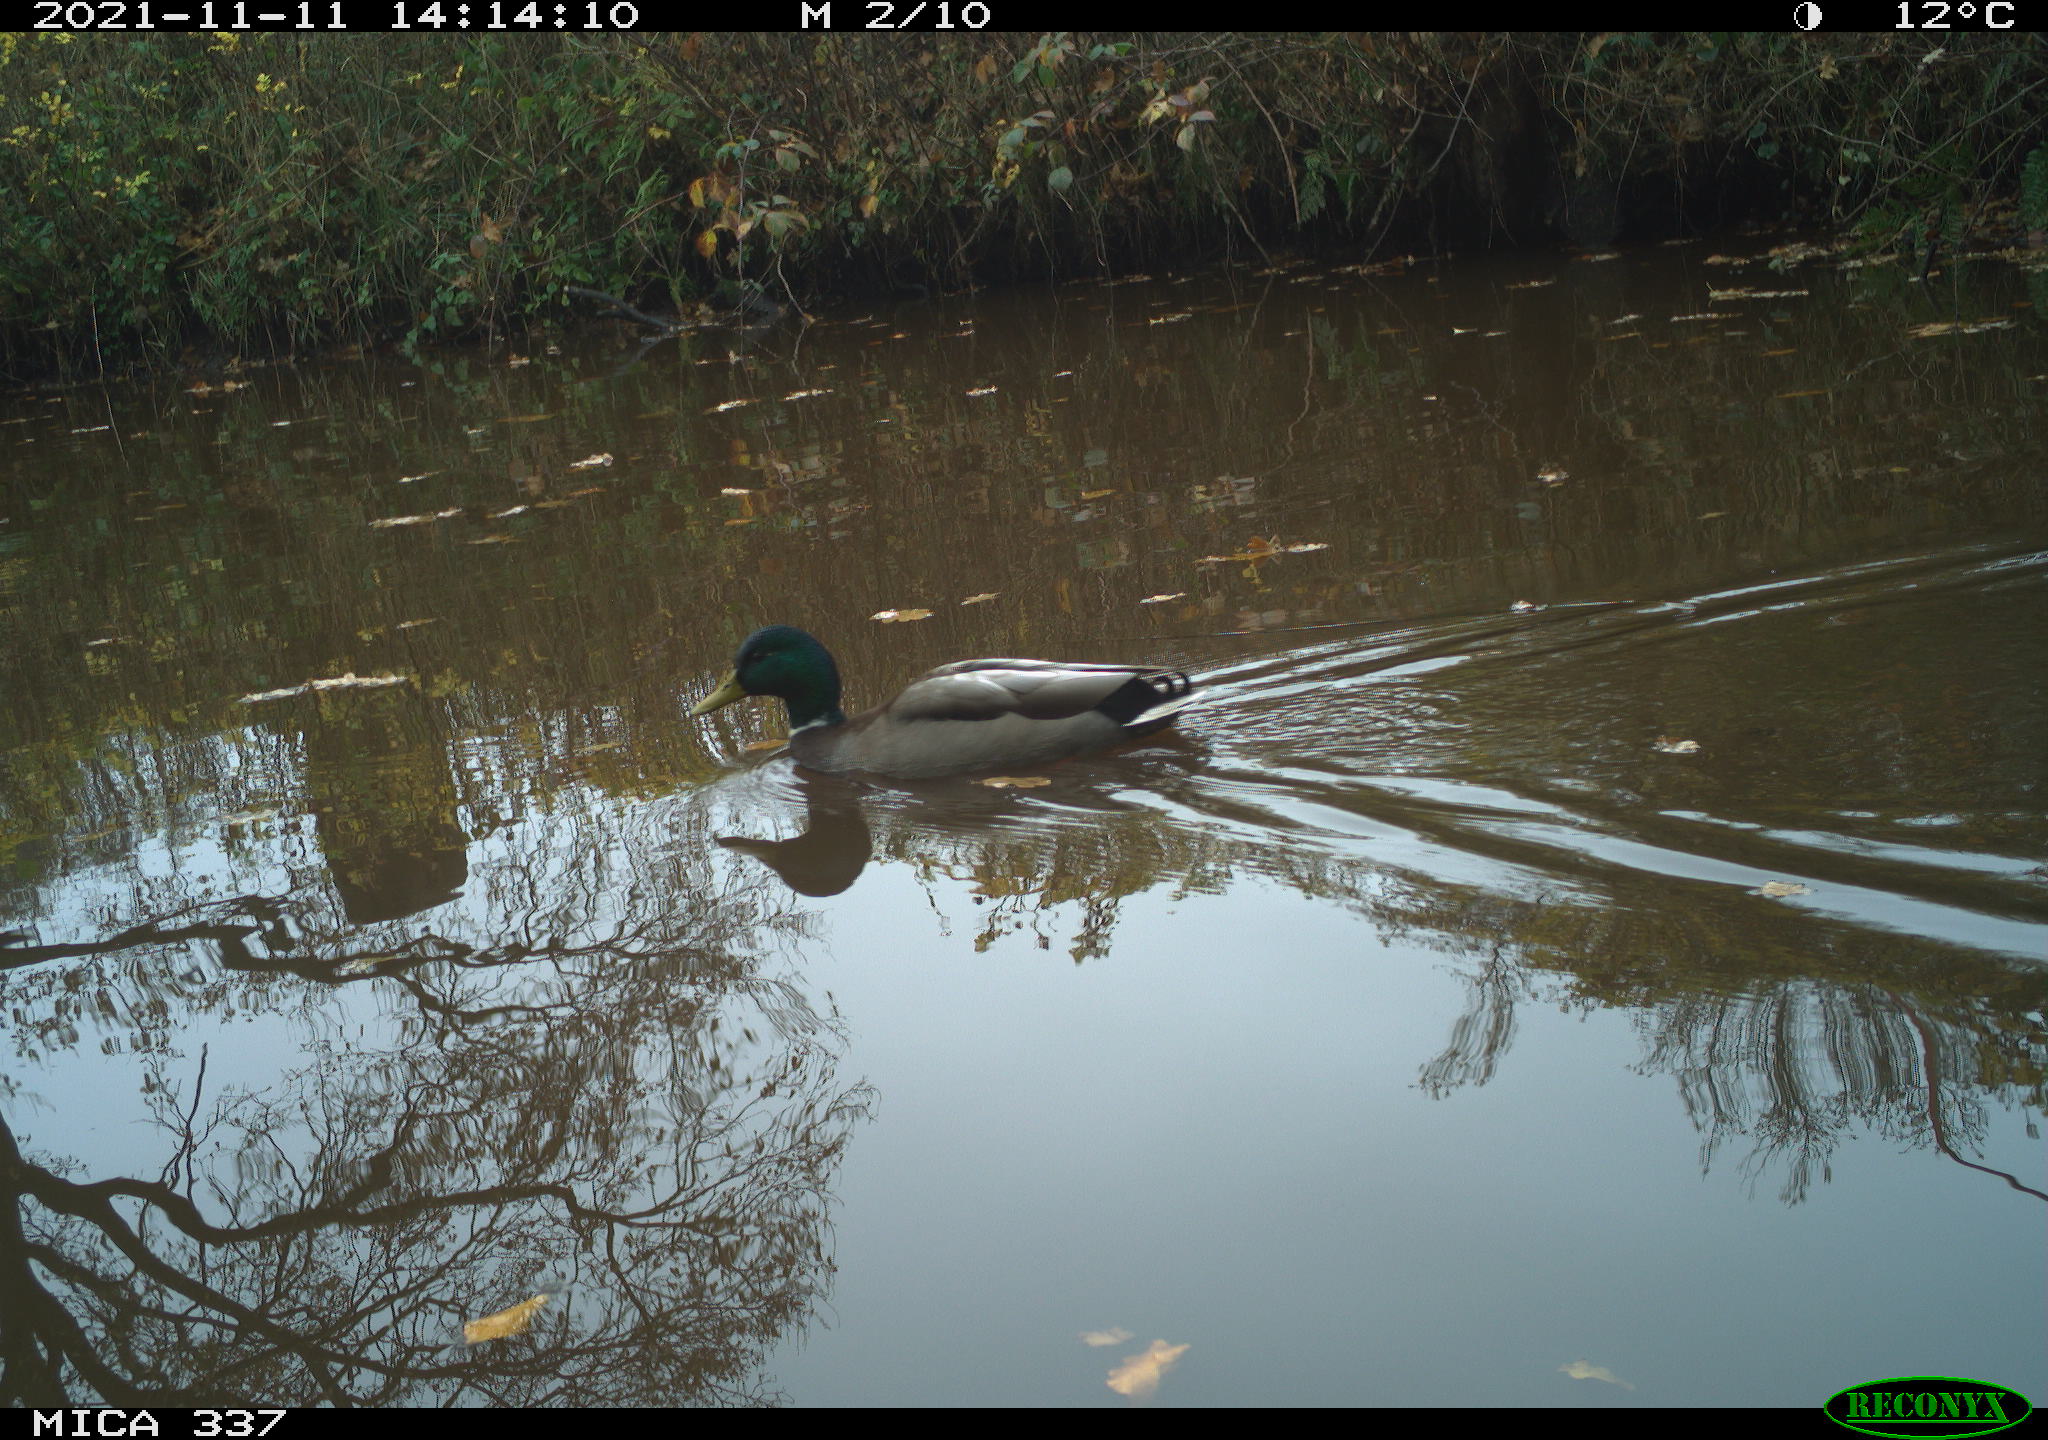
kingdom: Animalia
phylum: Chordata
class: Aves
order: Anseriformes
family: Anatidae
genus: Anas
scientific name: Anas platyrhynchos
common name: Mallard
